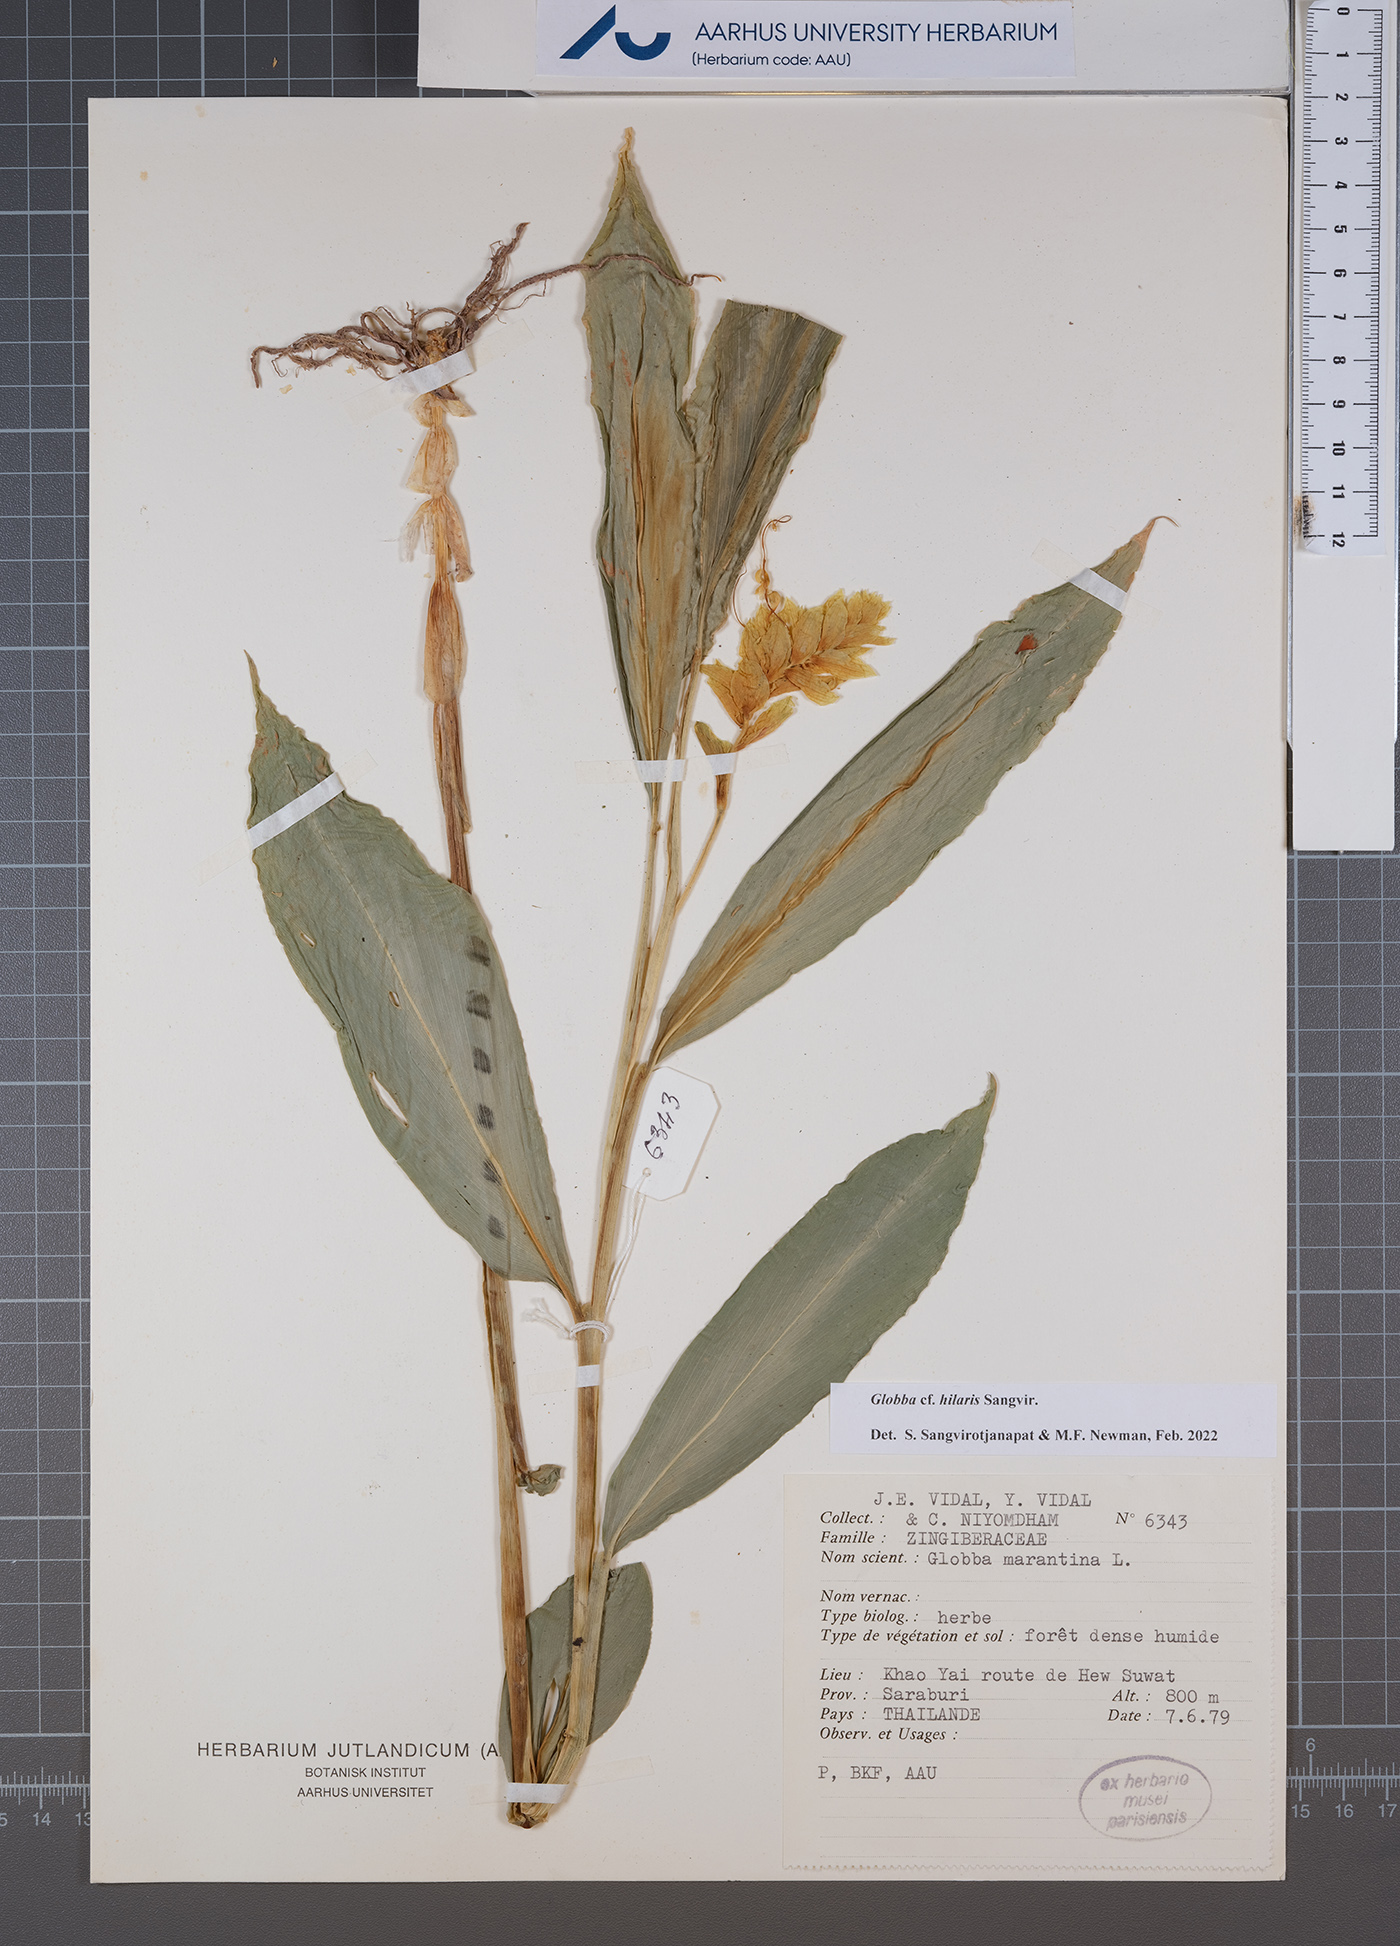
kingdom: Plantae
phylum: Tracheophyta
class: Liliopsida
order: Zingiberales
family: Zingiberaceae
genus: Globba
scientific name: Globba hilaris
